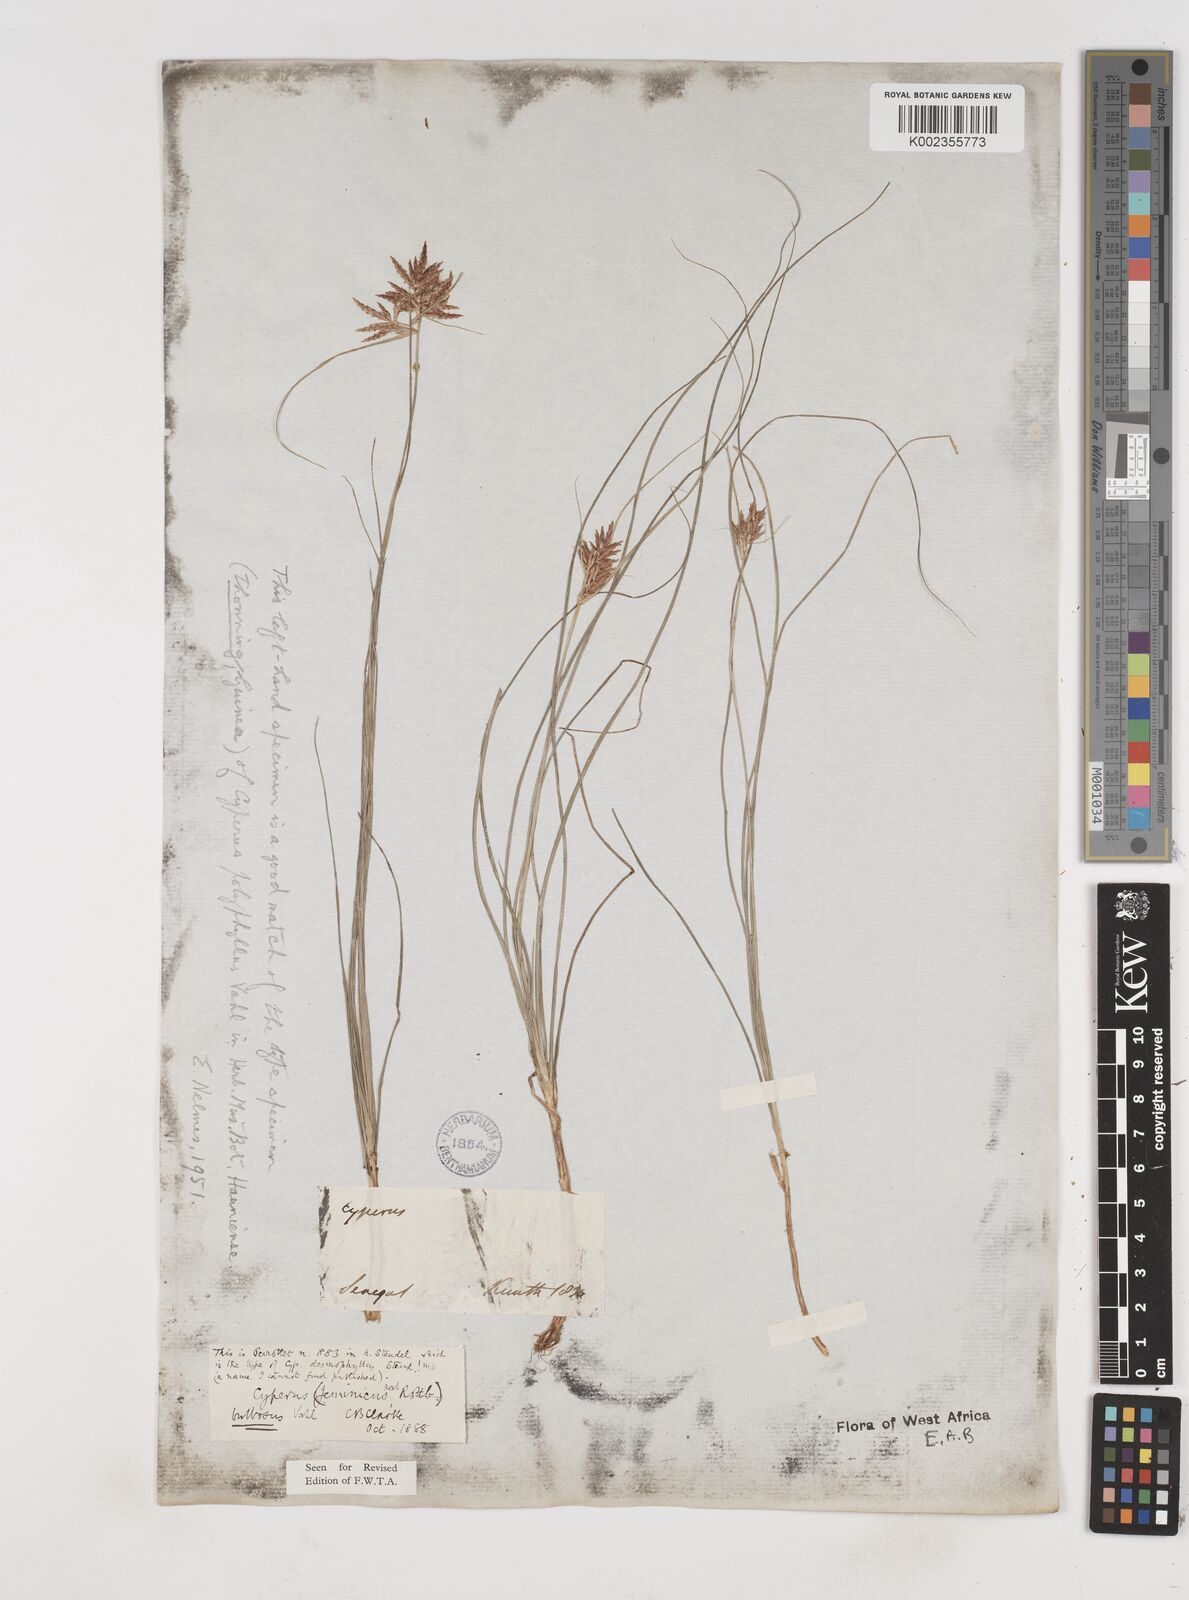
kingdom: Plantae
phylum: Tracheophyta
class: Liliopsida
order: Poales
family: Cyperaceae
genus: Cyperus
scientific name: Cyperus bulbosus
